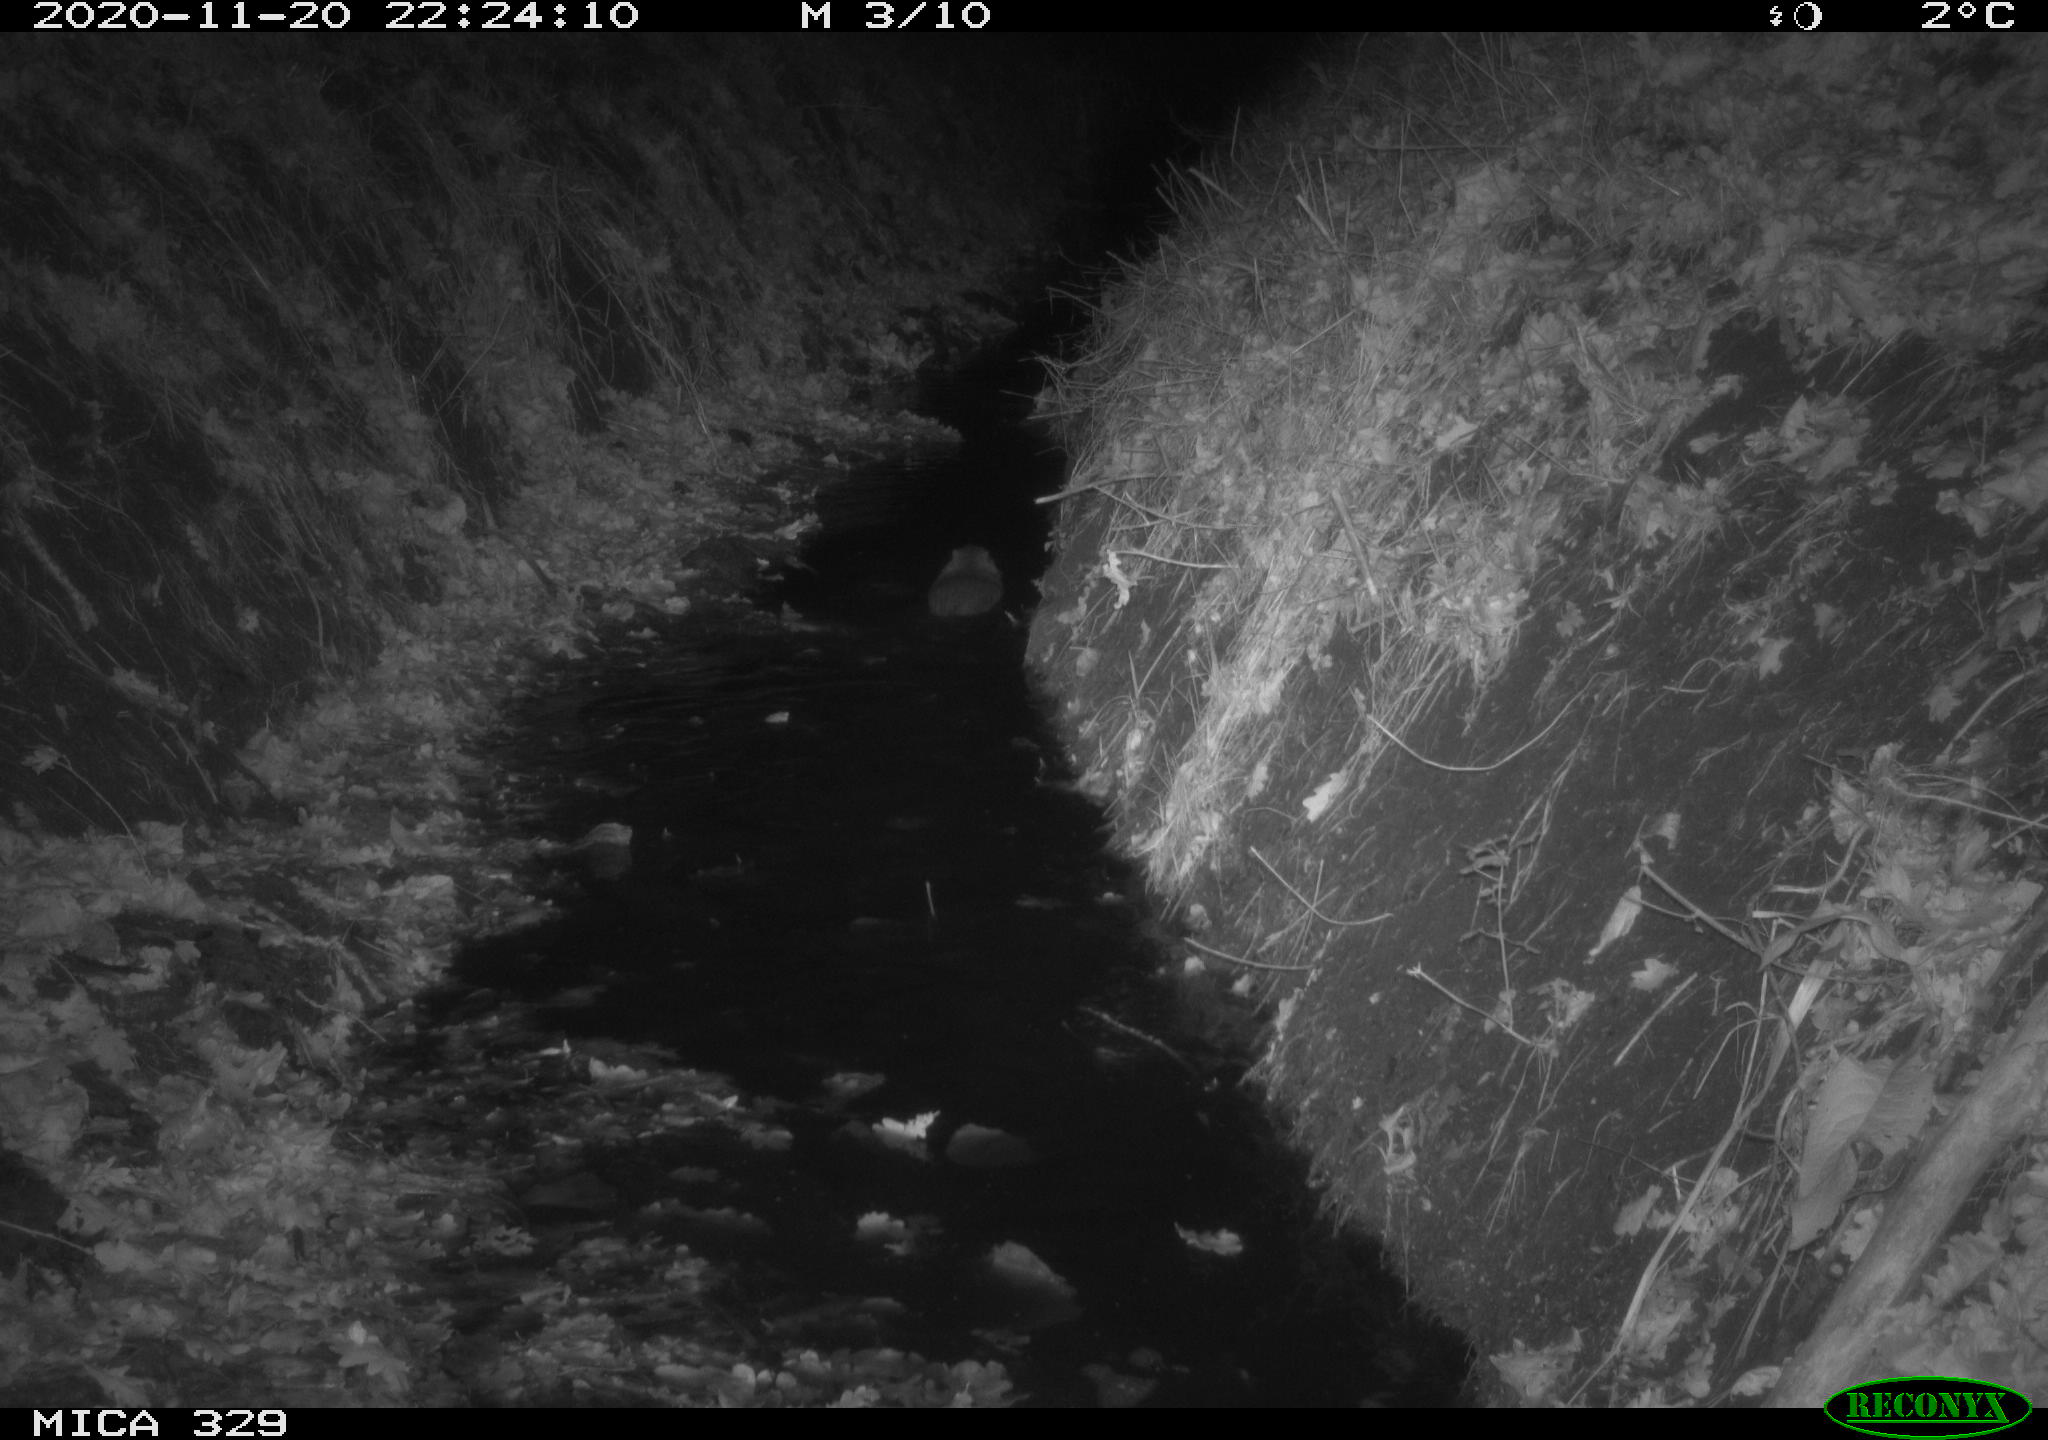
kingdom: Animalia
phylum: Chordata
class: Mammalia
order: Rodentia
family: Myocastoridae
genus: Myocastor
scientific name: Myocastor coypus
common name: Coypu
